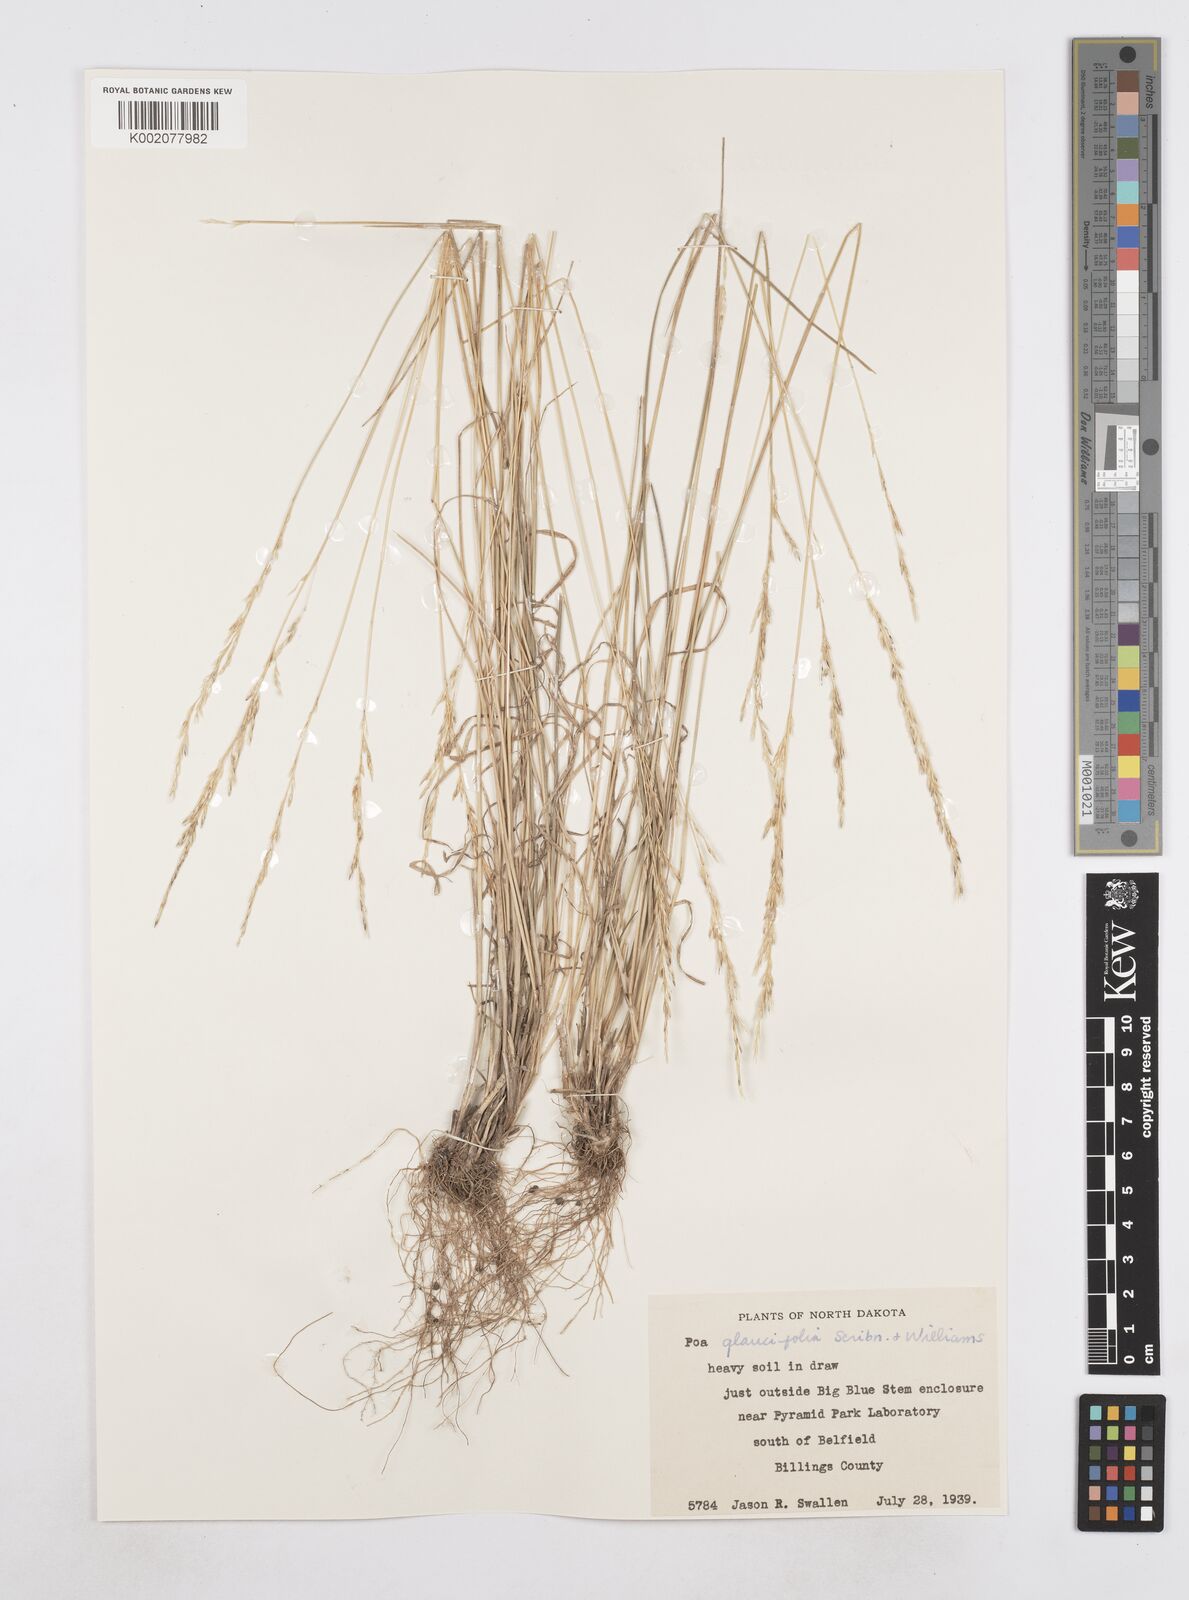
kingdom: Plantae
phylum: Tracheophyta
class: Liliopsida
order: Poales
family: Poaceae
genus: Poa
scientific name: Poa arida
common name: Plains bluegrass
